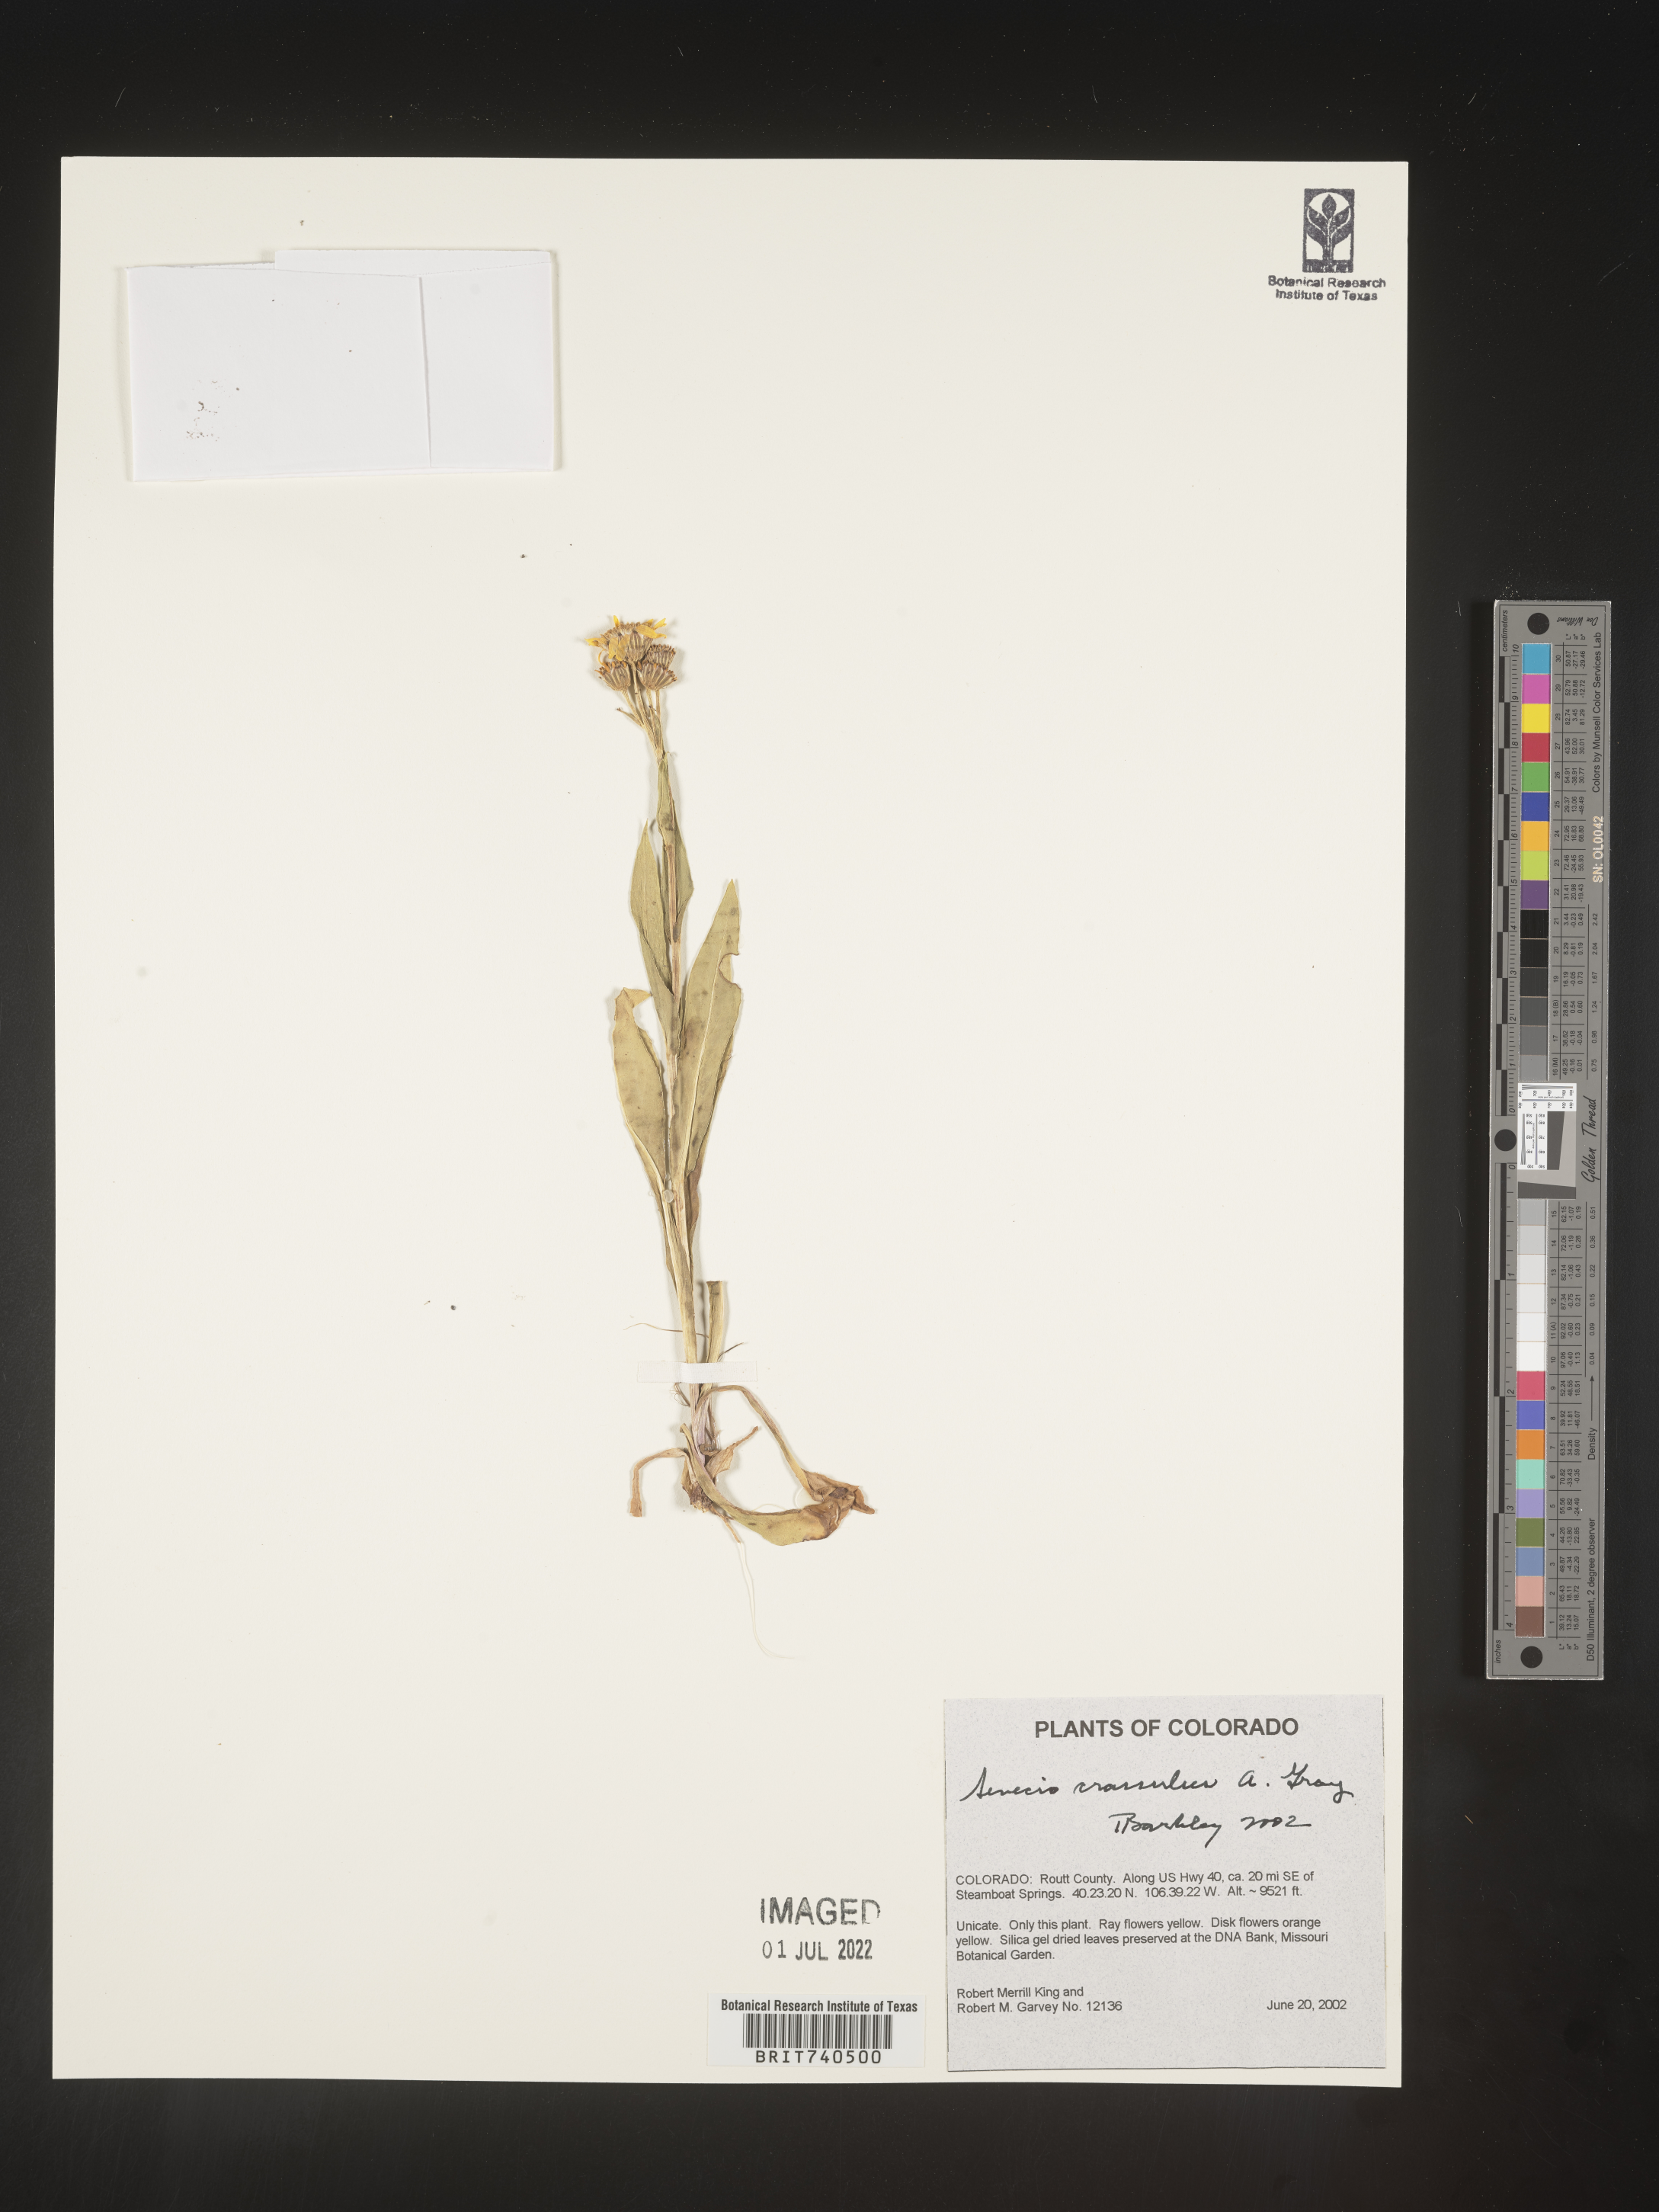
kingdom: Plantae
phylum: Tracheophyta
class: Magnoliopsida
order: Asterales
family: Asteraceae
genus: Senecio
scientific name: Senecio crassulus
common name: Mountain-meadow butterweed
